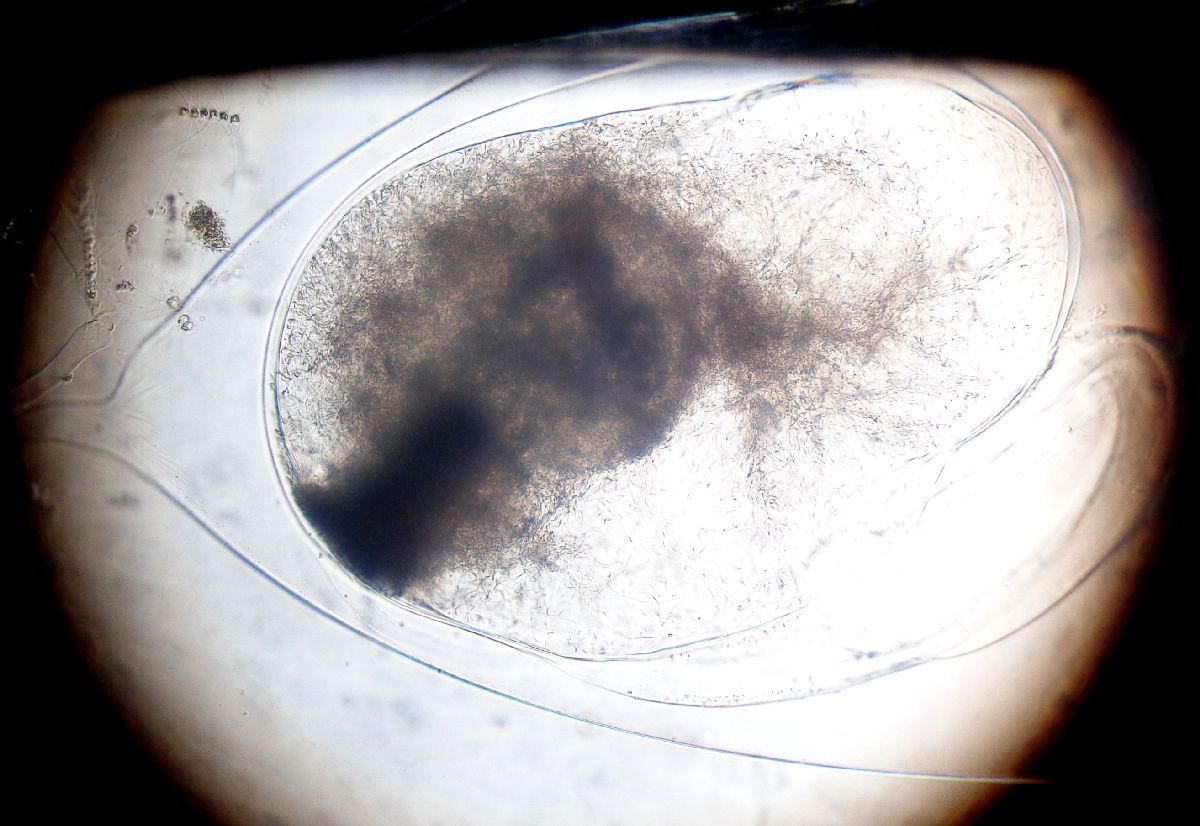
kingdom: Animalia
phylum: Mollusca
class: Cephalopoda
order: Octopoda
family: Octopodidae
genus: Octopus
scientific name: Octopus vulgaris
